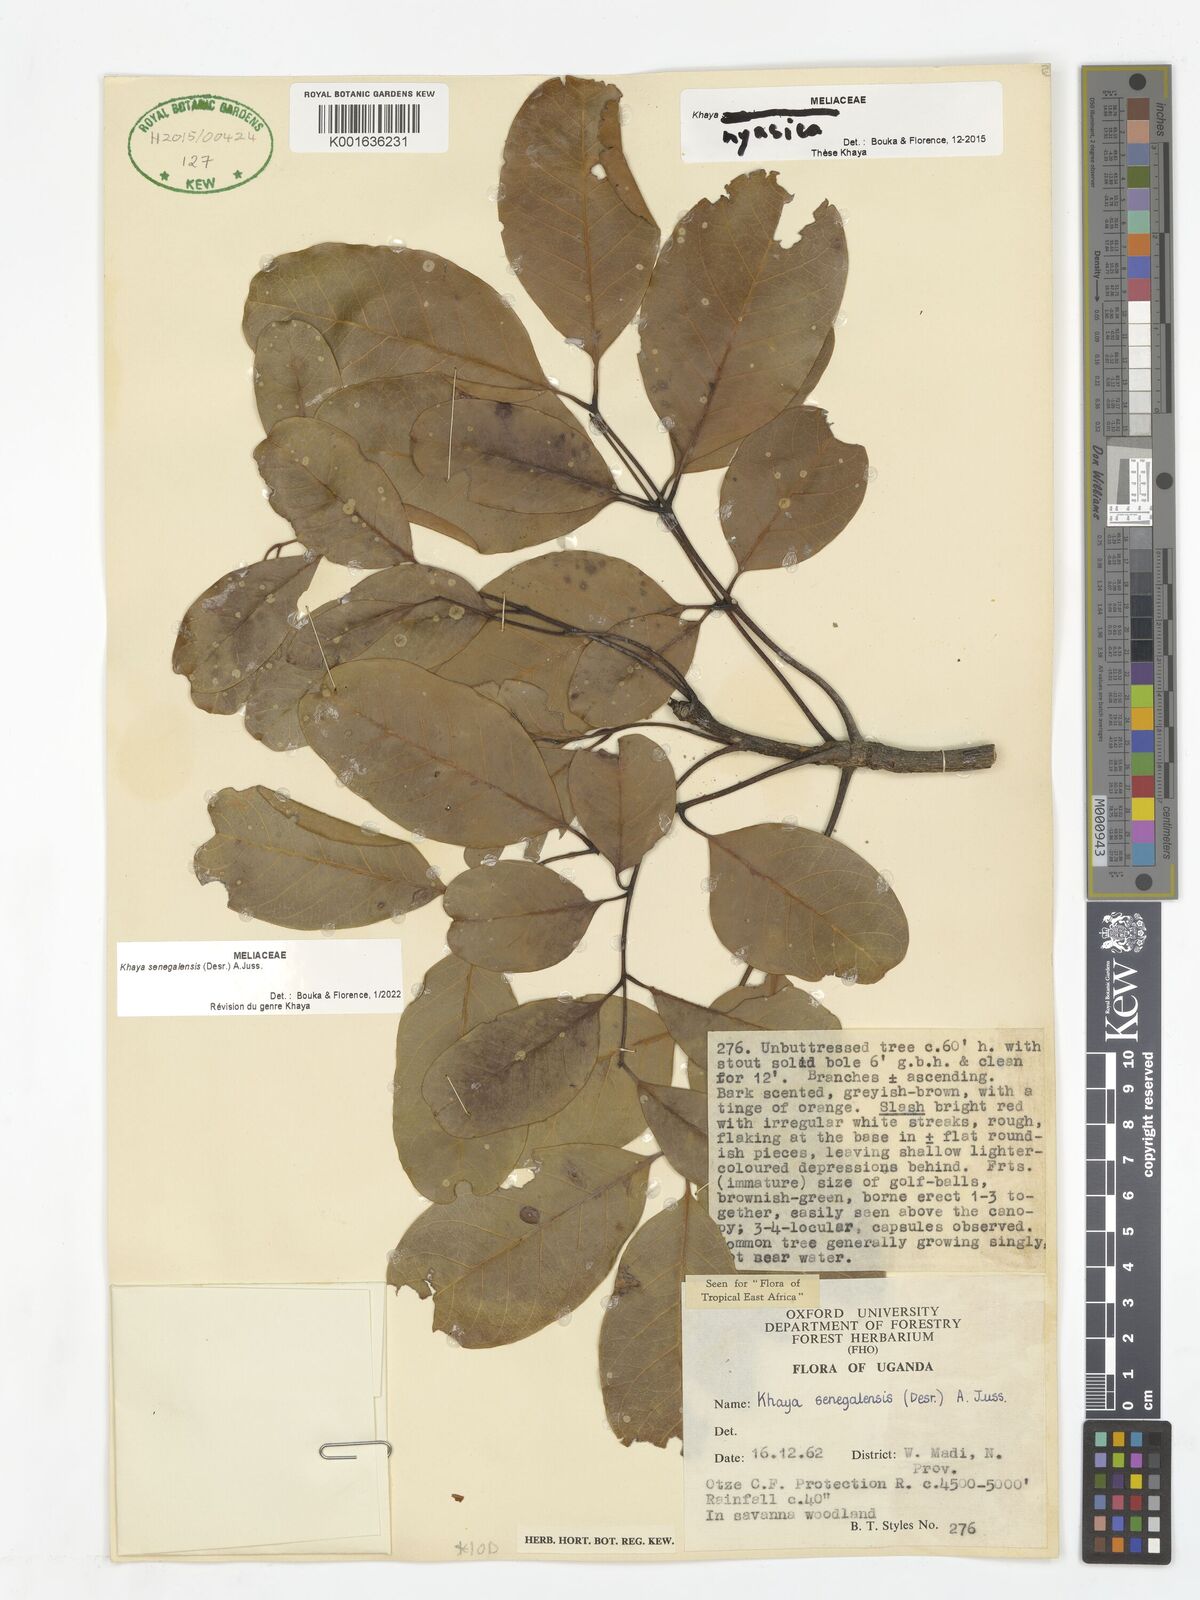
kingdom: Plantae
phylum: Tracheophyta
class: Magnoliopsida
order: Sapindales
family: Meliaceae
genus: Khaya
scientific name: Khaya senegalensis
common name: Senegal mahogany
